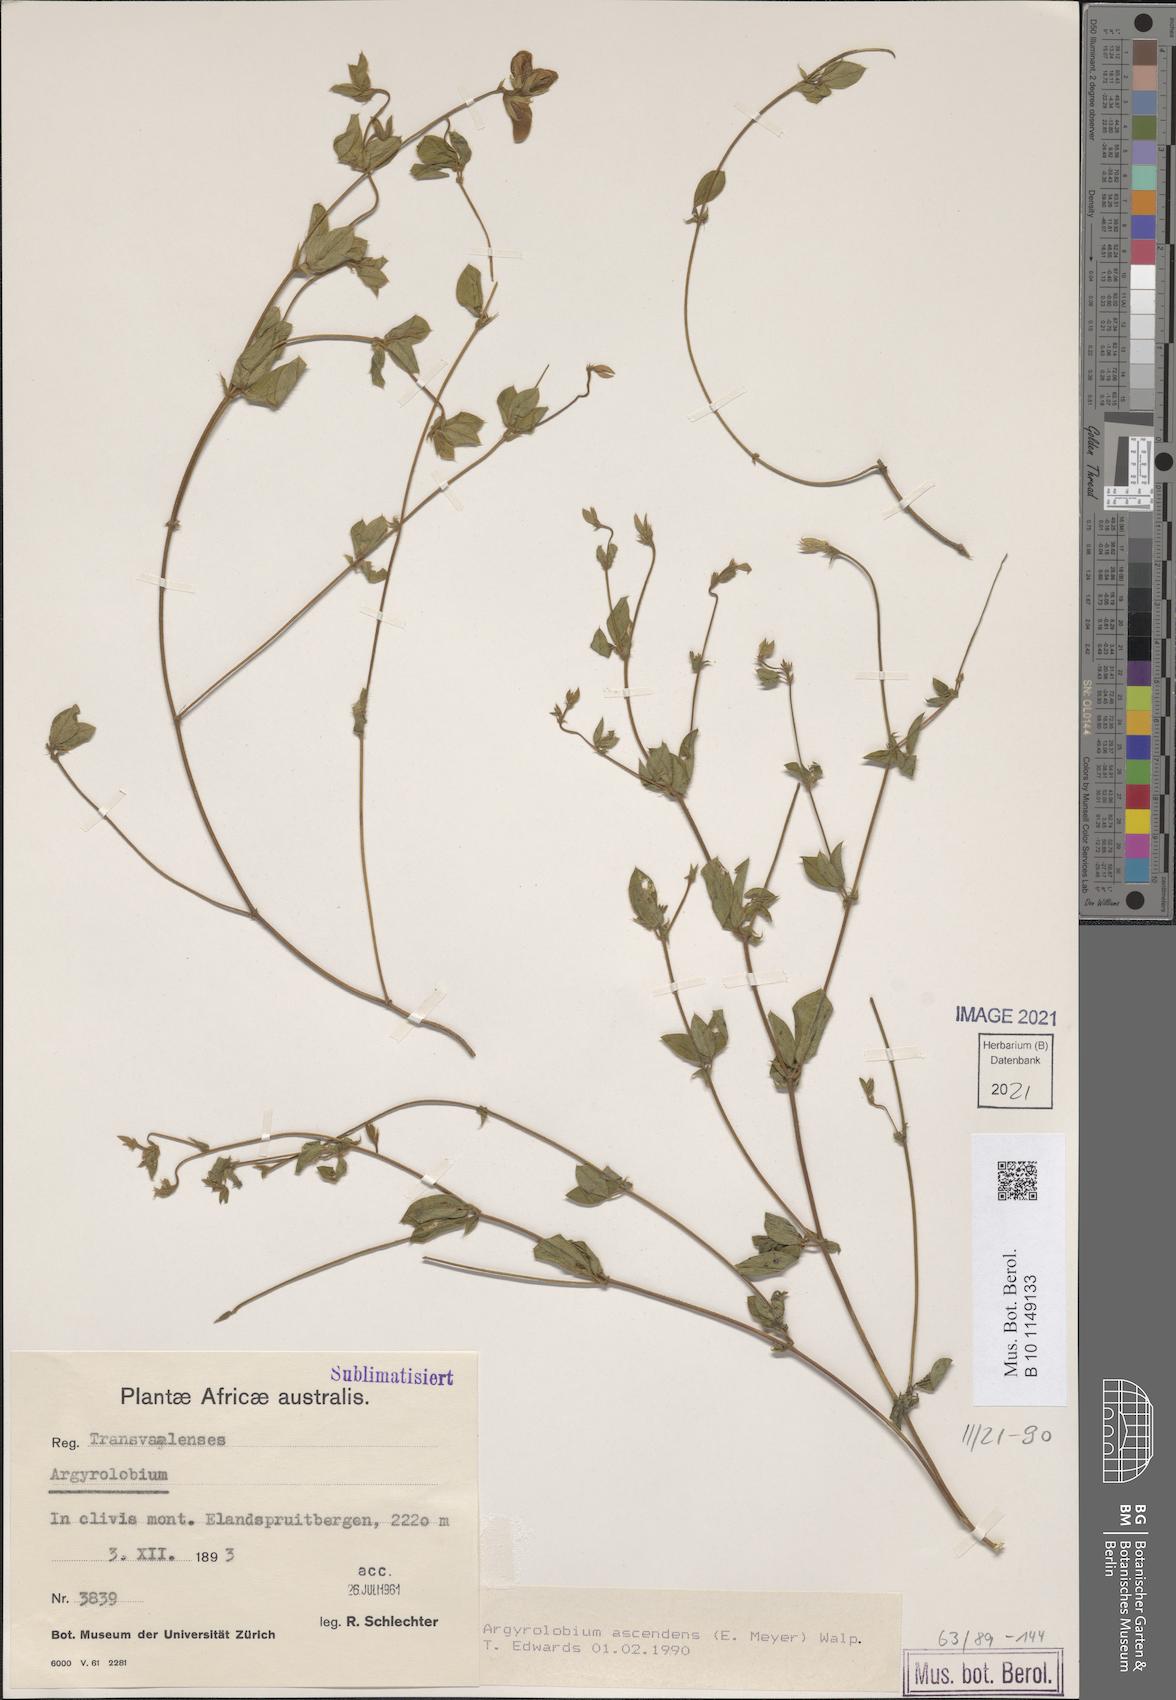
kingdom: Plantae
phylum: Tracheophyta
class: Magnoliopsida
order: Fabales
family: Fabaceae
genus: Argyrolobium
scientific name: Argyrolobium ascendens
